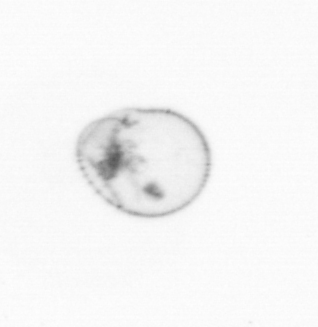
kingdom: Chromista
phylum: Myzozoa
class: Dinophyceae
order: Noctilucales
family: Noctilucaceae
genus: Noctiluca
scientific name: Noctiluca scintillans
